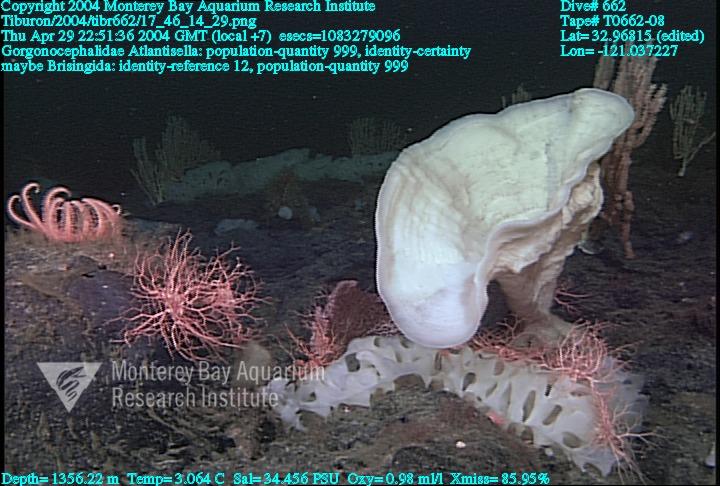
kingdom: Animalia
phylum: Porifera
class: Hexactinellida
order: Lyssacinosida
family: Euplectellidae
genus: Atlantisella
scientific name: Atlantisella
